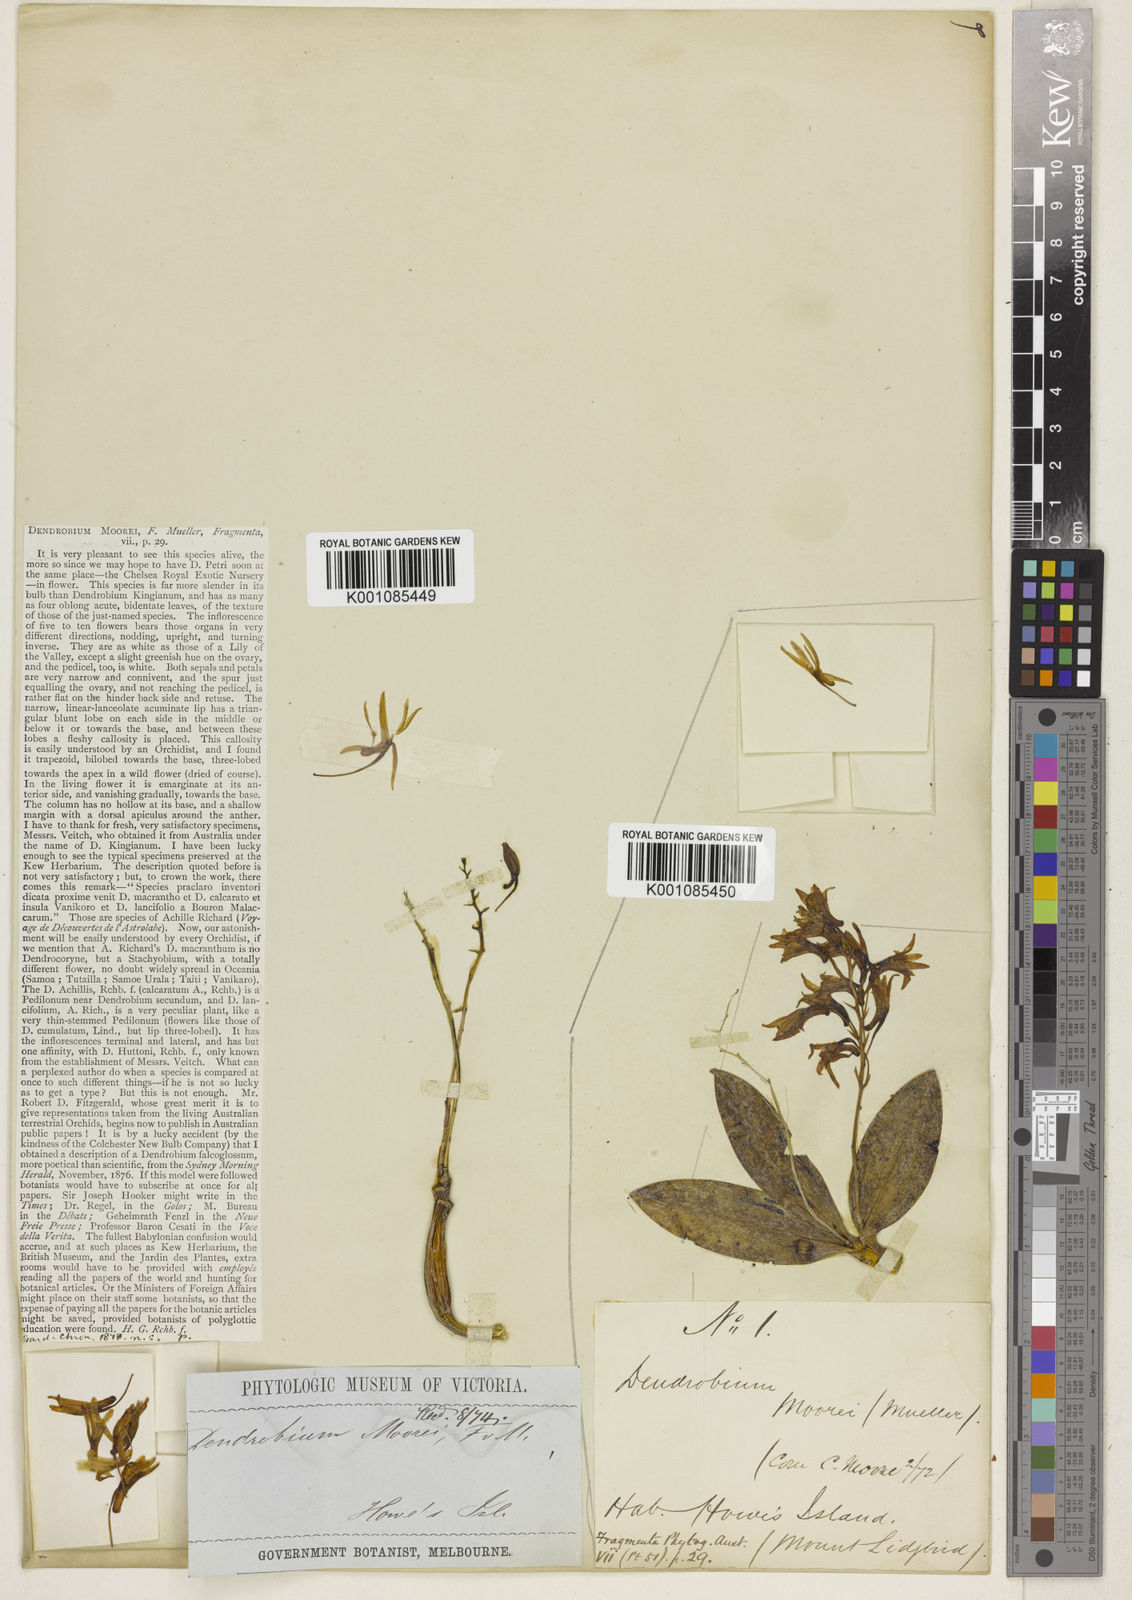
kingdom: Plantae
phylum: Tracheophyta
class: Liliopsida
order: Asparagales
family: Orchidaceae
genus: Dendrobium
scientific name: Dendrobium moorei
